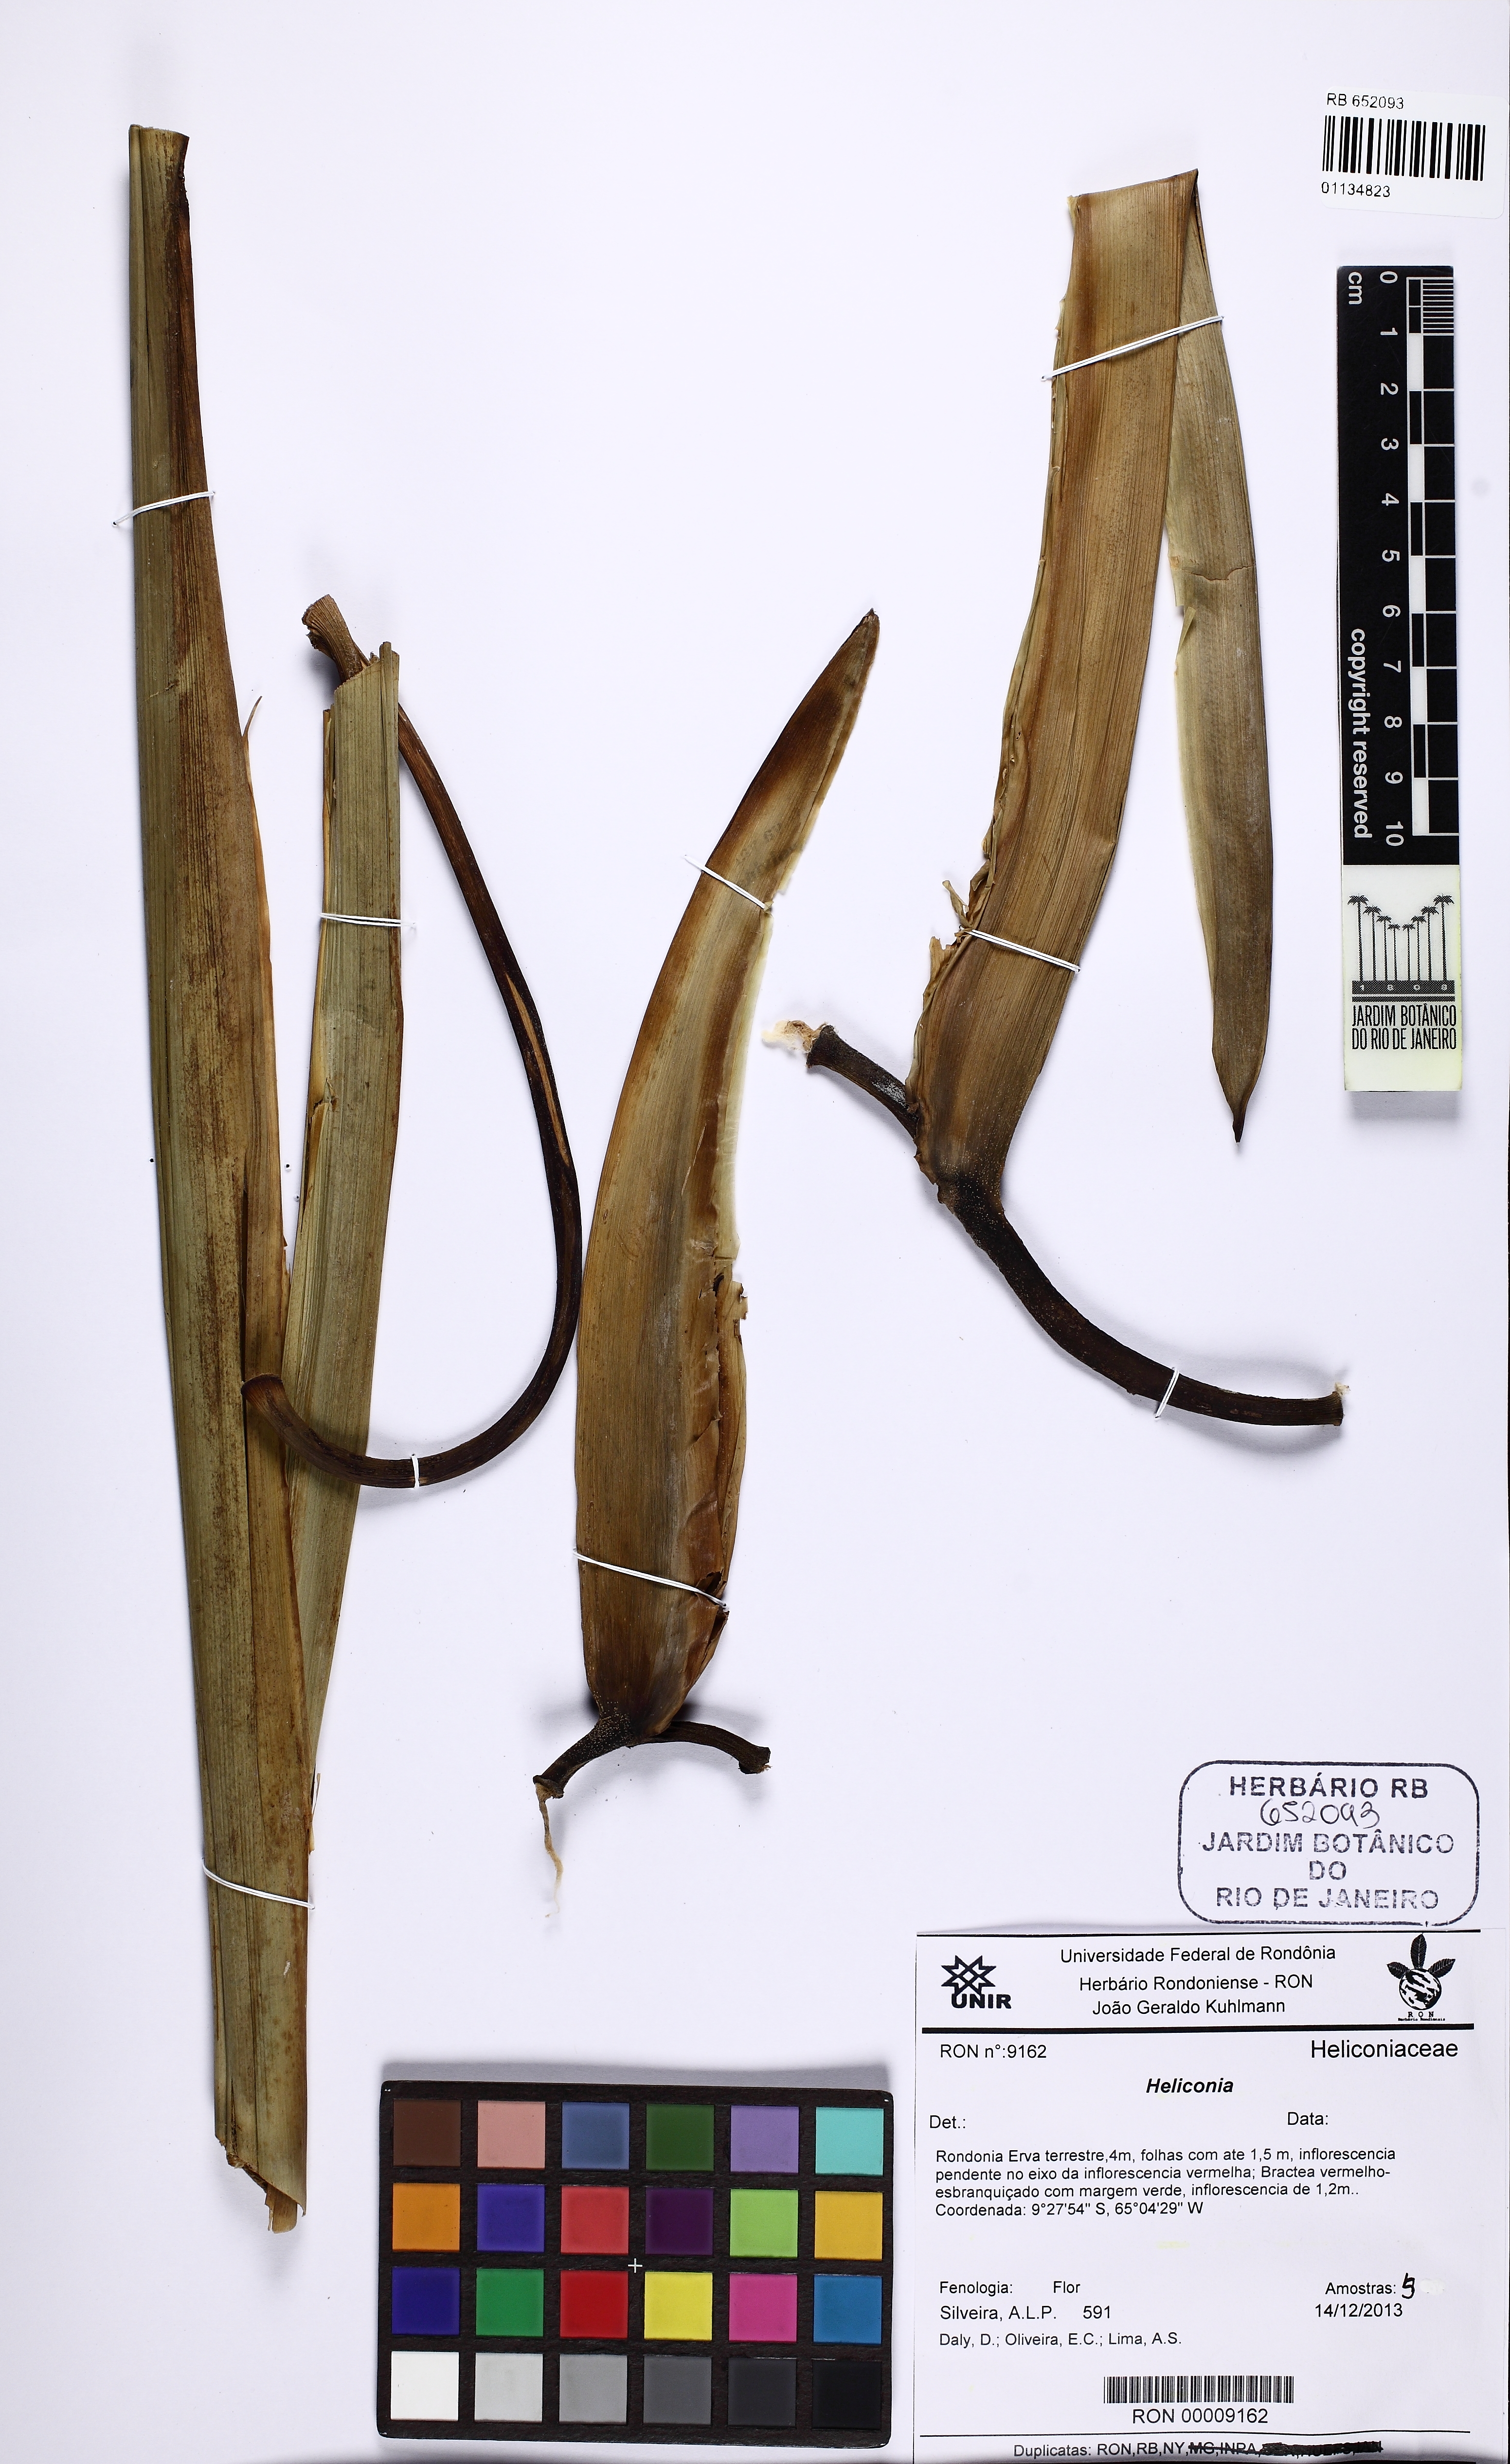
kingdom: Plantae
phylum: Tracheophyta
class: Liliopsida
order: Zingiberales
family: Heliconiaceae
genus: Heliconia
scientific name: Heliconia
